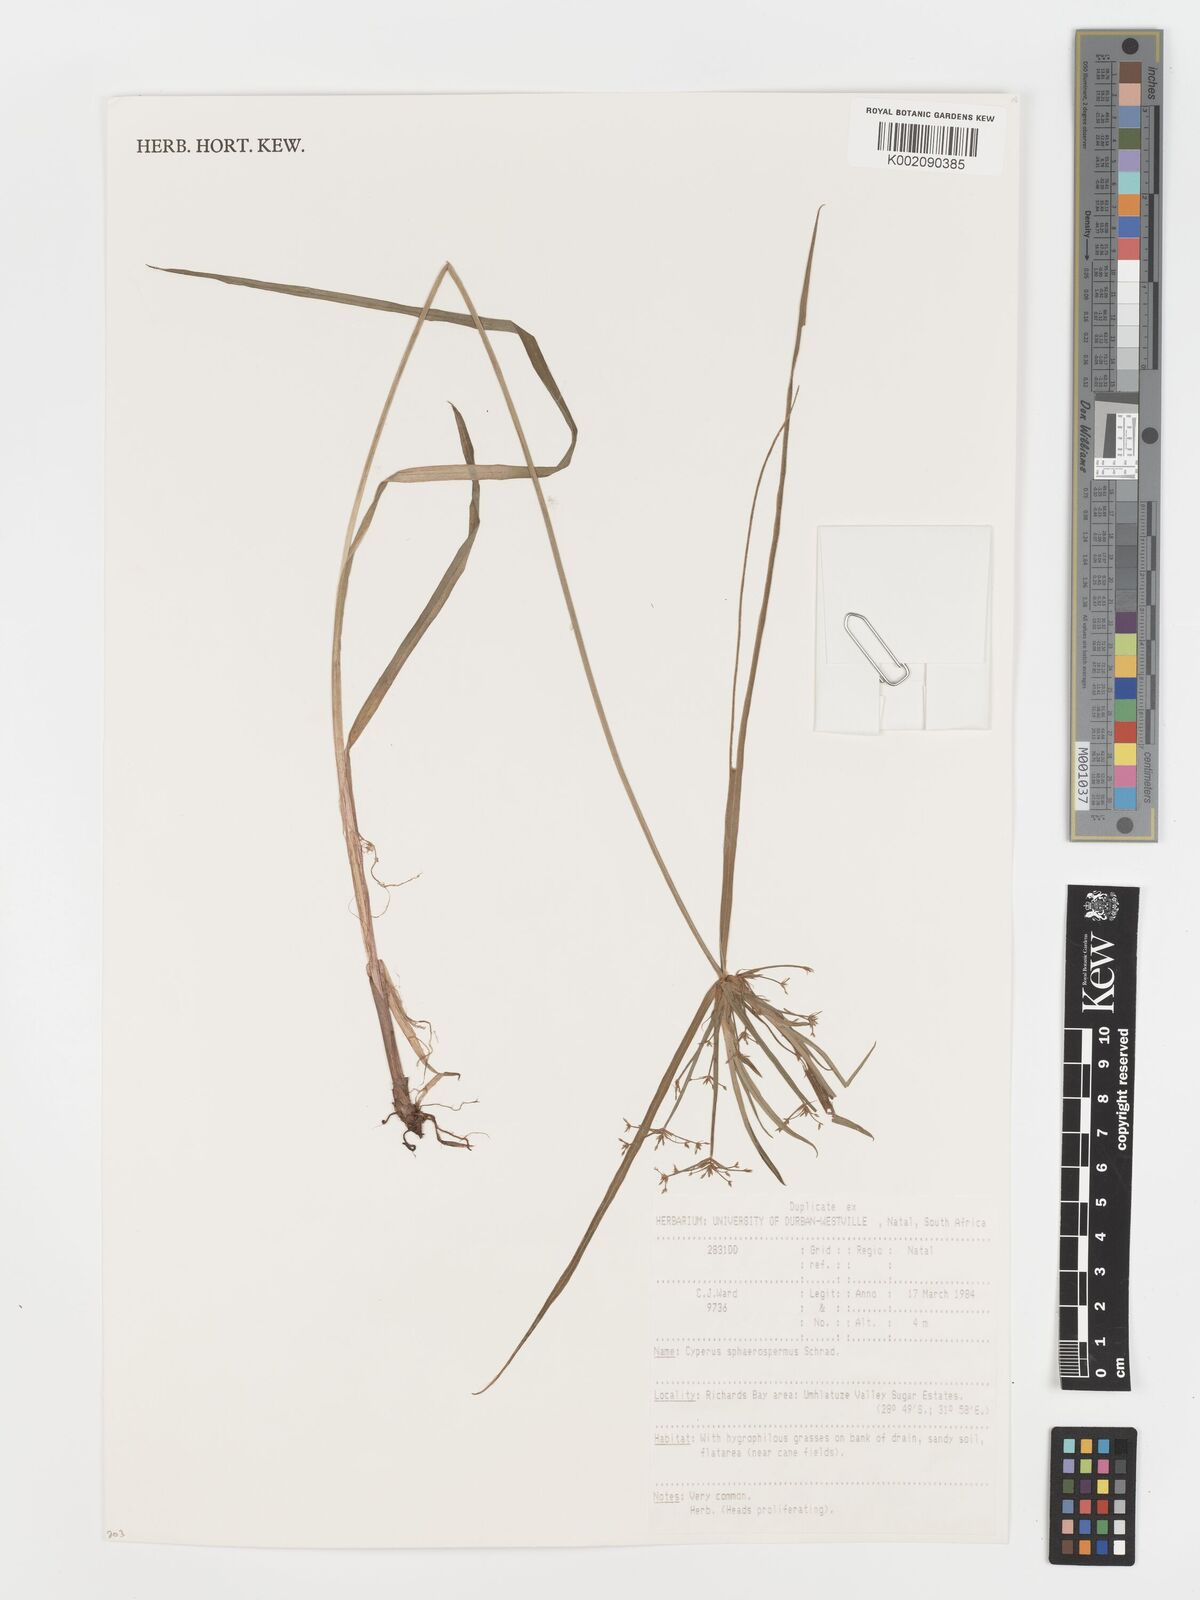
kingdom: Plantae
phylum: Tracheophyta
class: Liliopsida
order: Poales
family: Cyperaceae
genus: Cyperus
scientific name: Cyperus sphaerospermus
